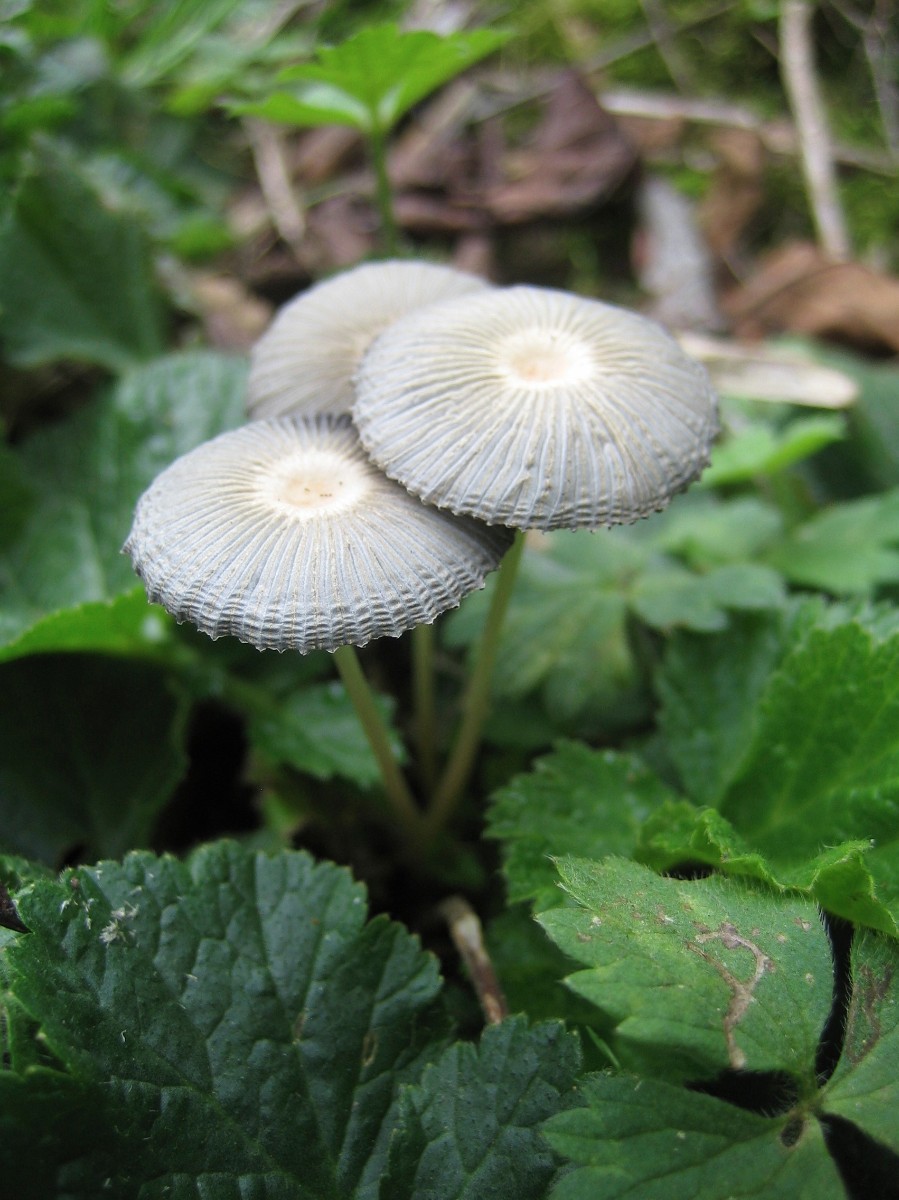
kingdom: Fungi
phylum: Basidiomycota
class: Agaricomycetes
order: Agaricales
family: Psathyrellaceae
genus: Parasola
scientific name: Parasola
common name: hjulhat
